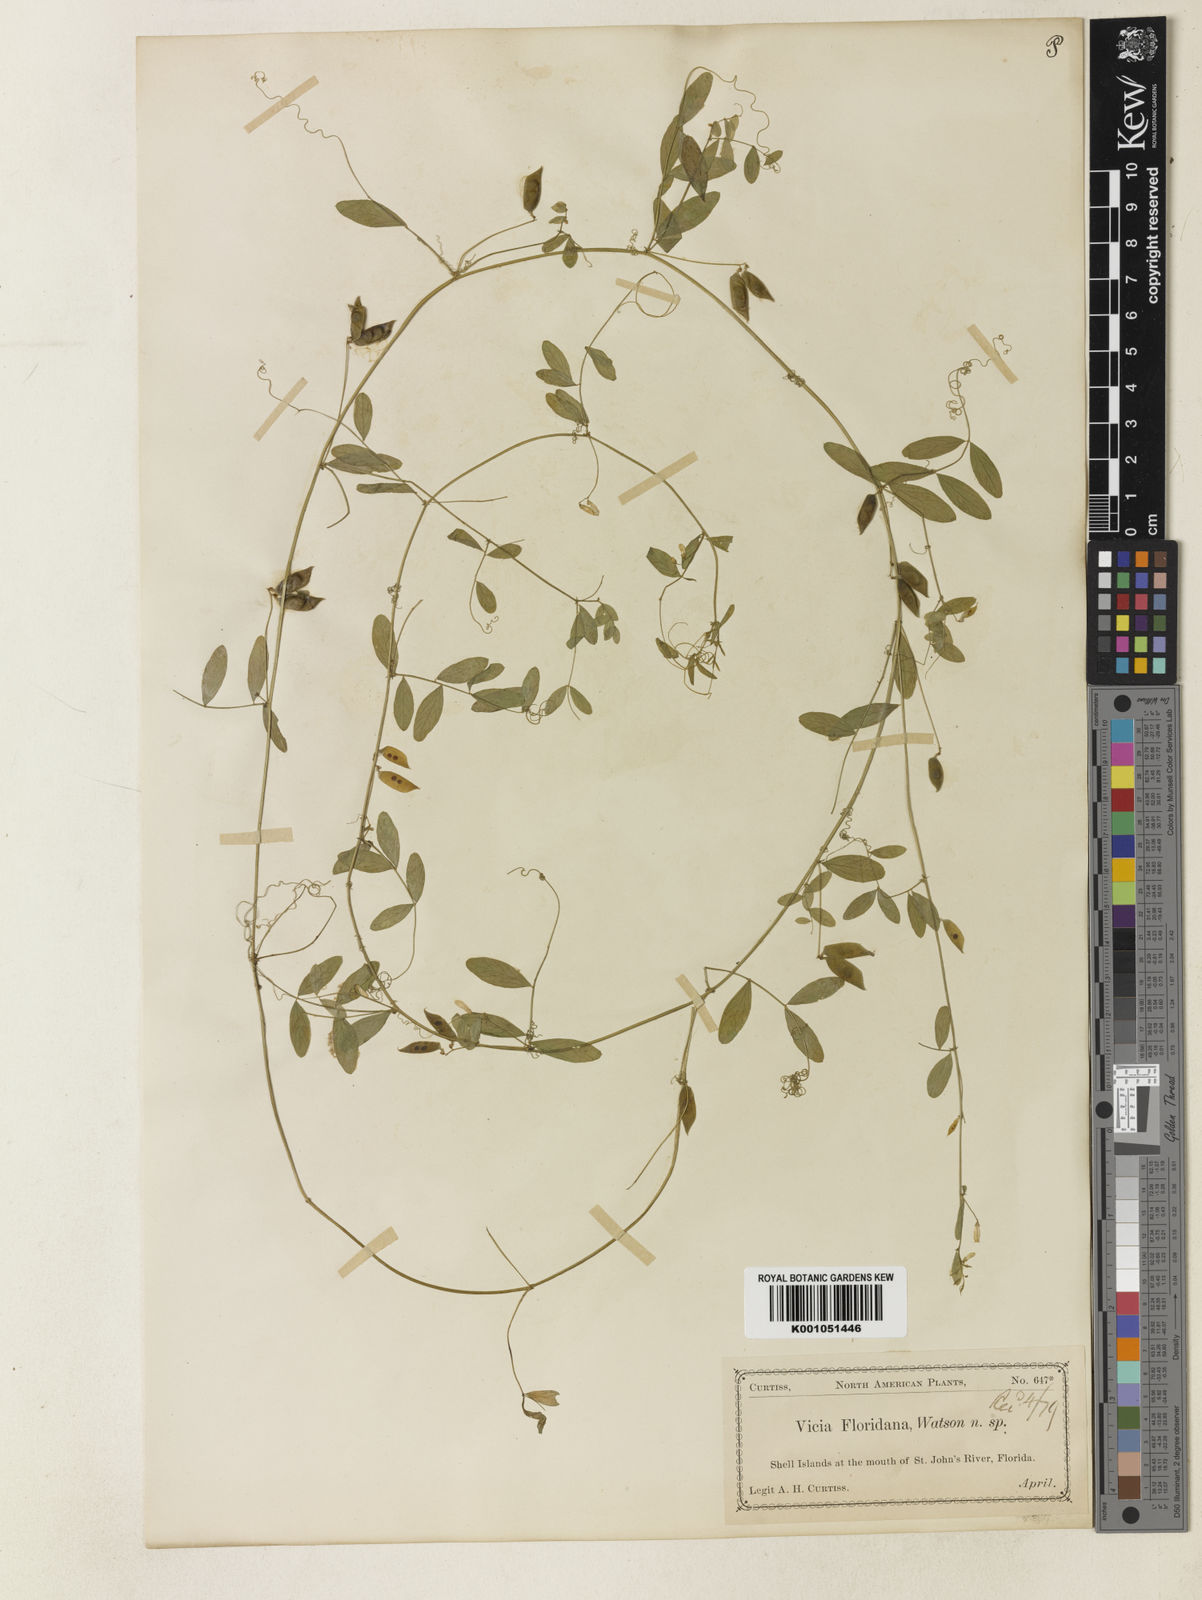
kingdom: Plantae
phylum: Tracheophyta
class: Magnoliopsida
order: Fabales
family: Fabaceae
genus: Vicia
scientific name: Vicia floridana
